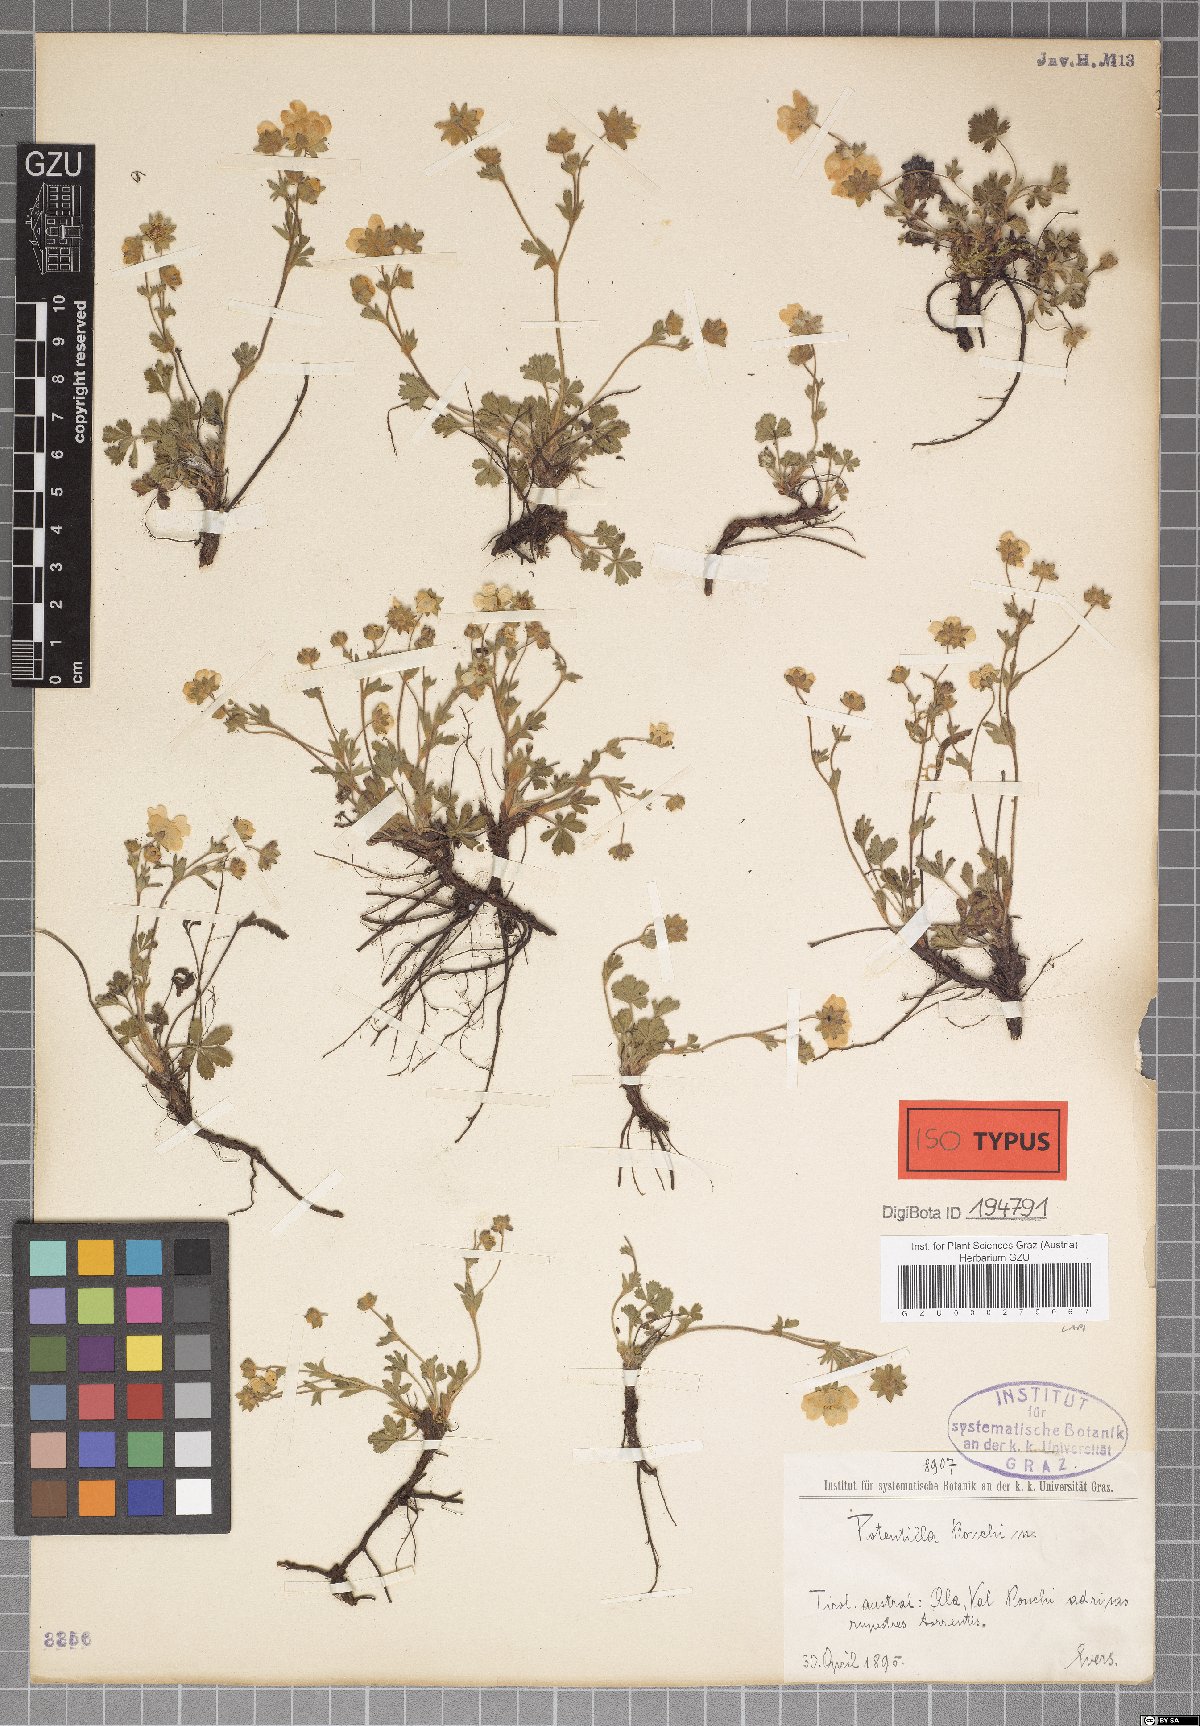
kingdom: Plantae
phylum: Tracheophyta
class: Magnoliopsida
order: Rosales
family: Rosaceae
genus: Potentilla
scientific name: Potentilla pusilla
